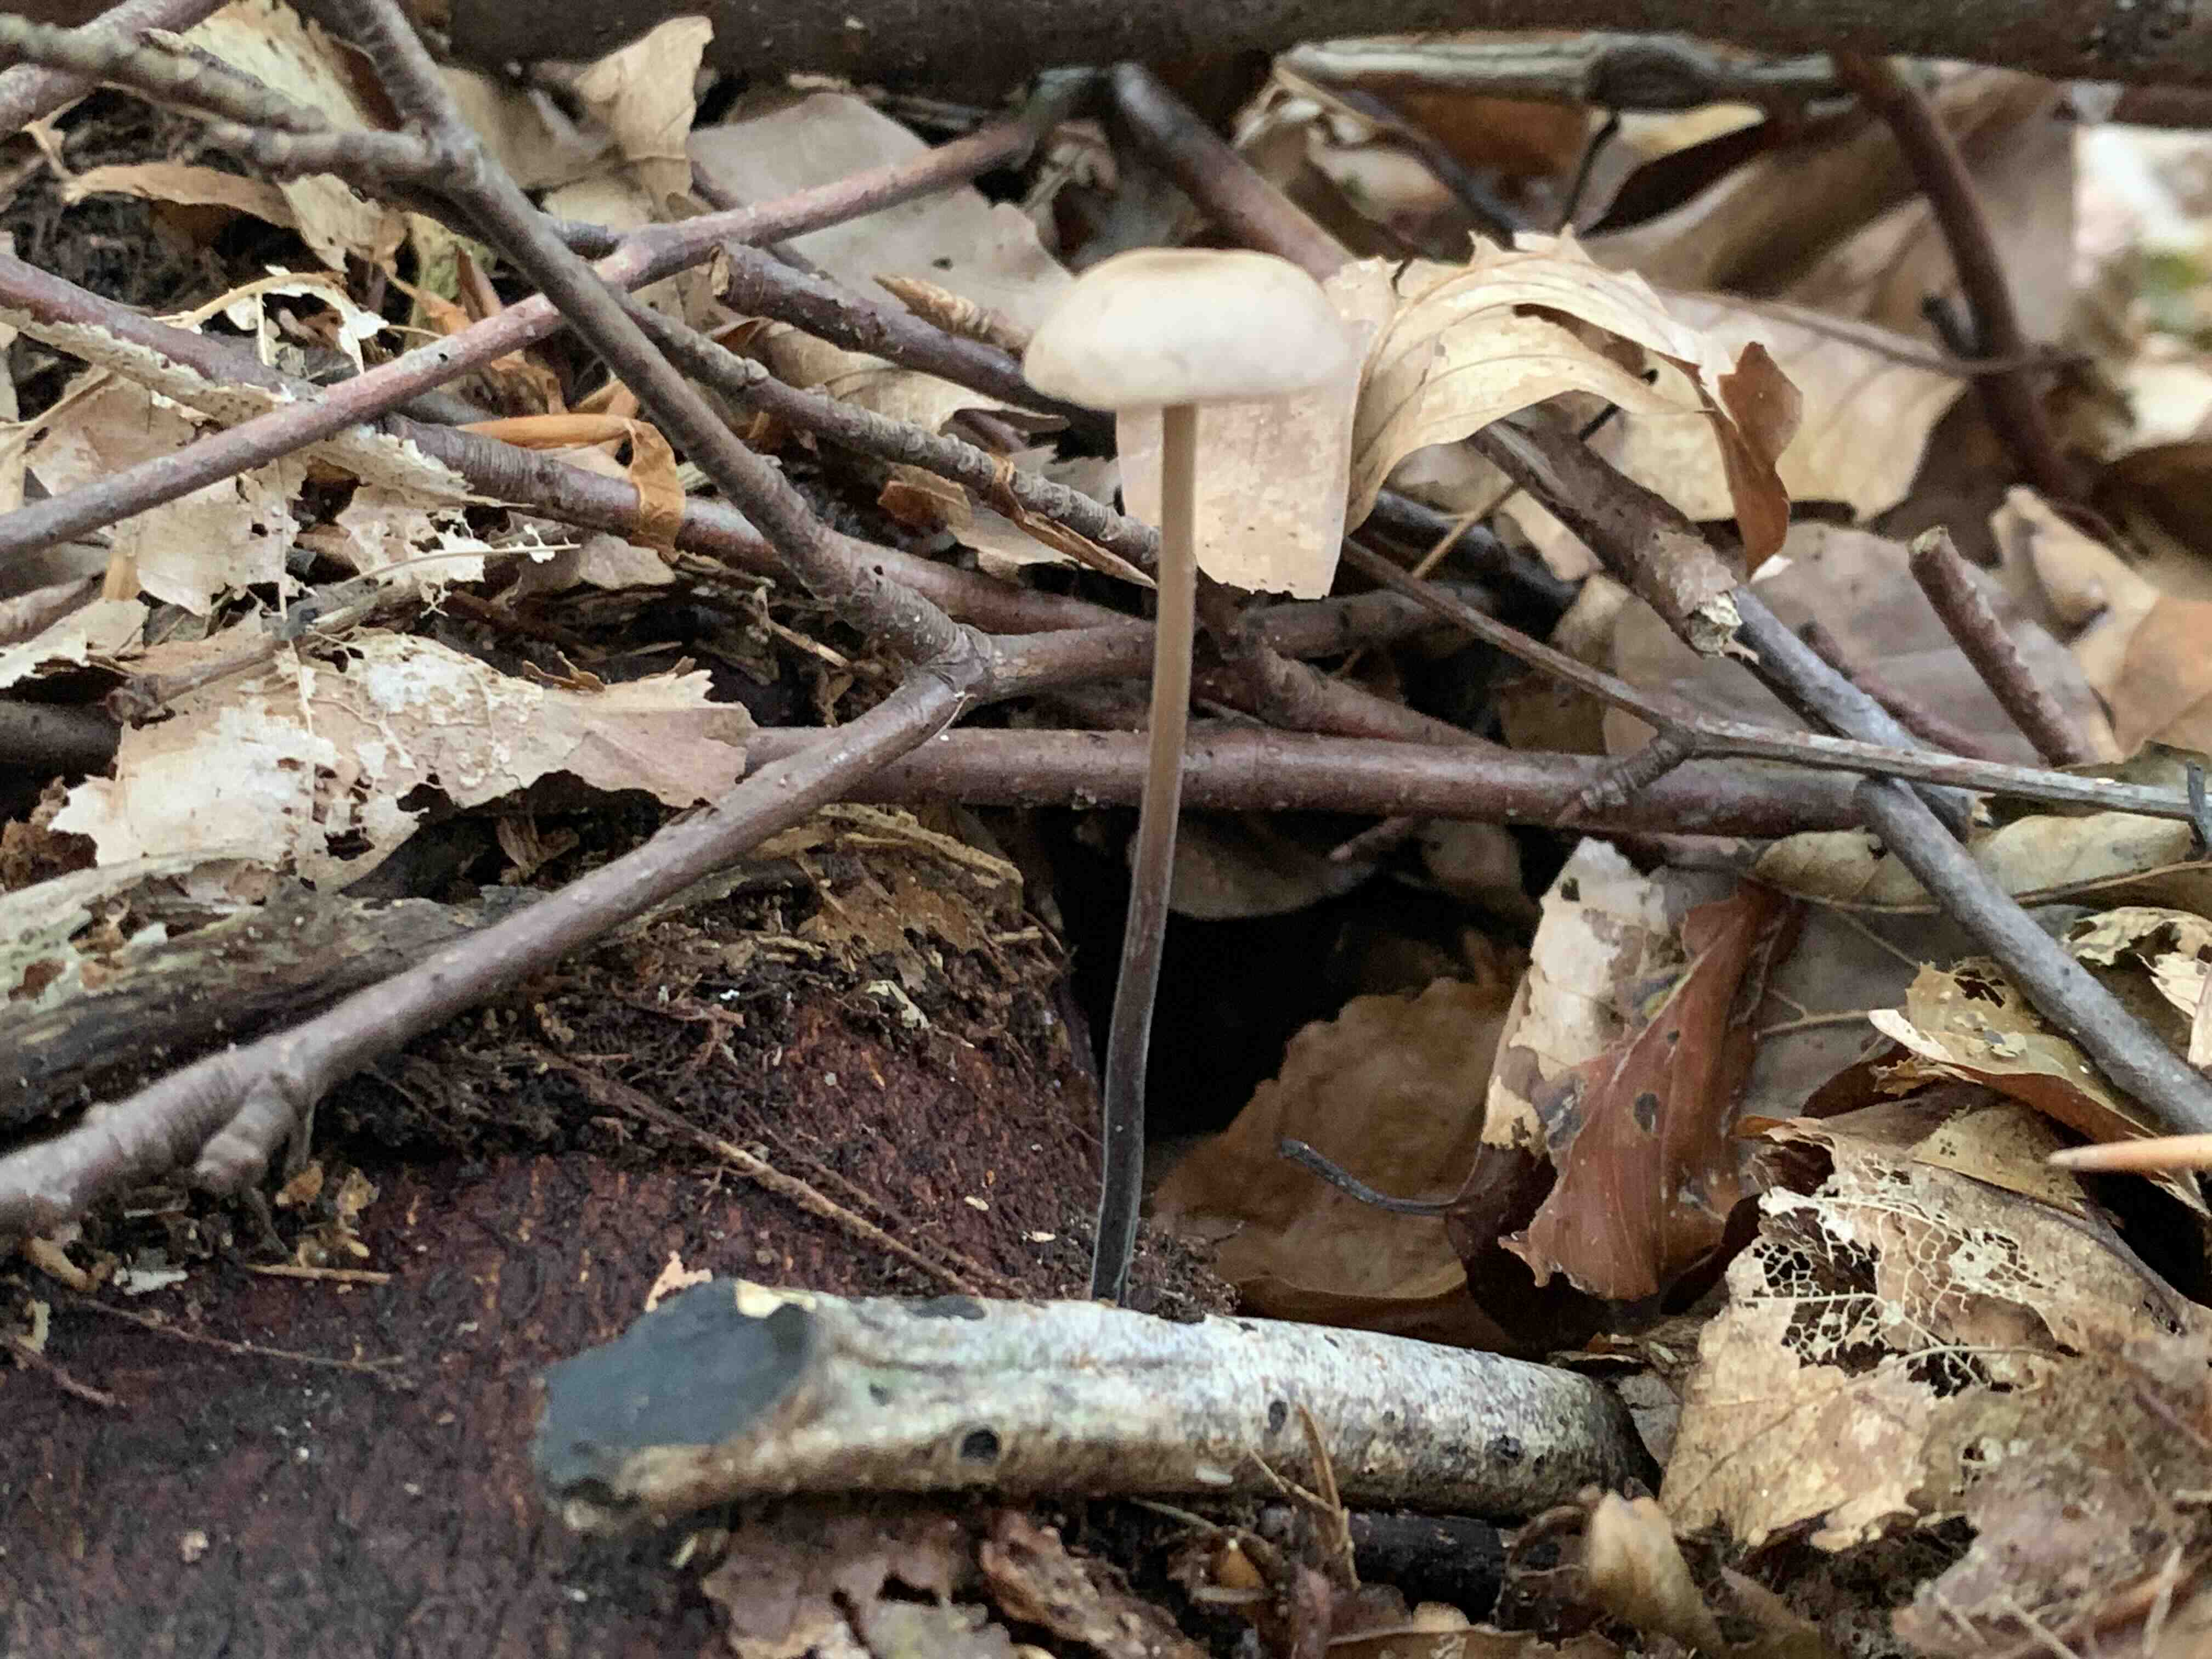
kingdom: Fungi
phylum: Basidiomycota
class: Agaricomycetes
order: Agaricales
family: Omphalotaceae
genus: Mycetinis
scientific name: Mycetinis alliaceus
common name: stor løghat
